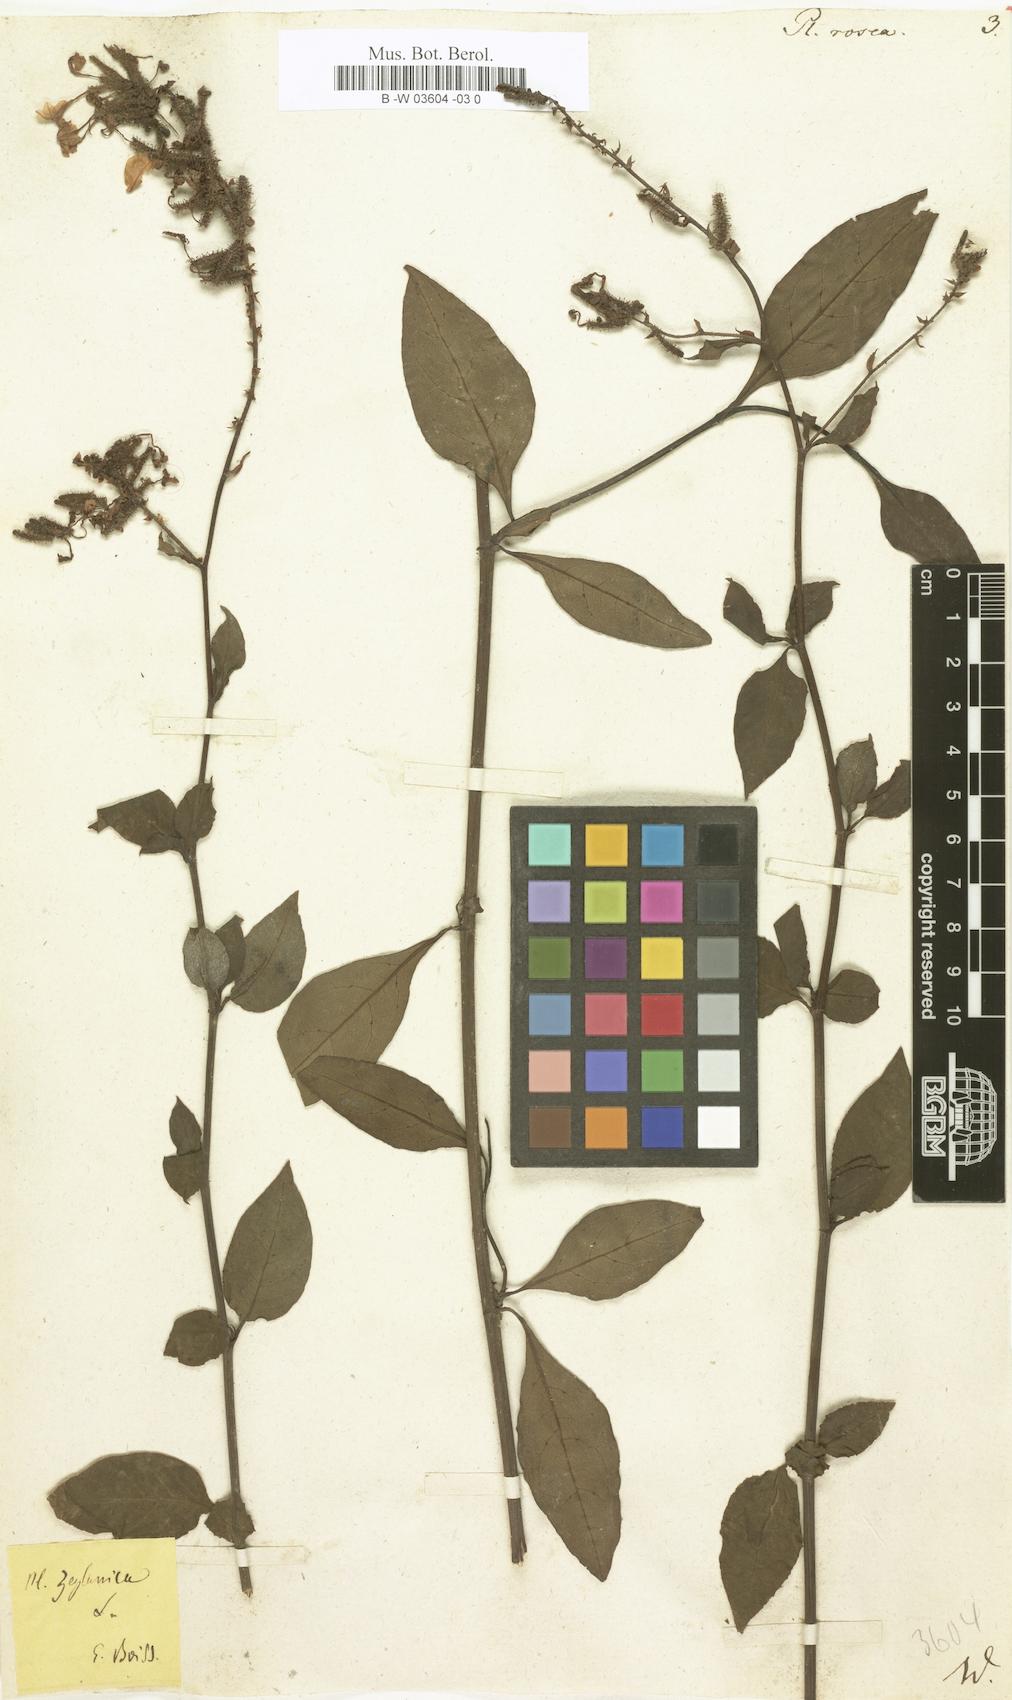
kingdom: Plantae
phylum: Tracheophyta
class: Magnoliopsida
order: Caryophyllales
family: Plumbaginaceae
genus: Plumbago
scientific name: Plumbago indica
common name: Indian leadwort
